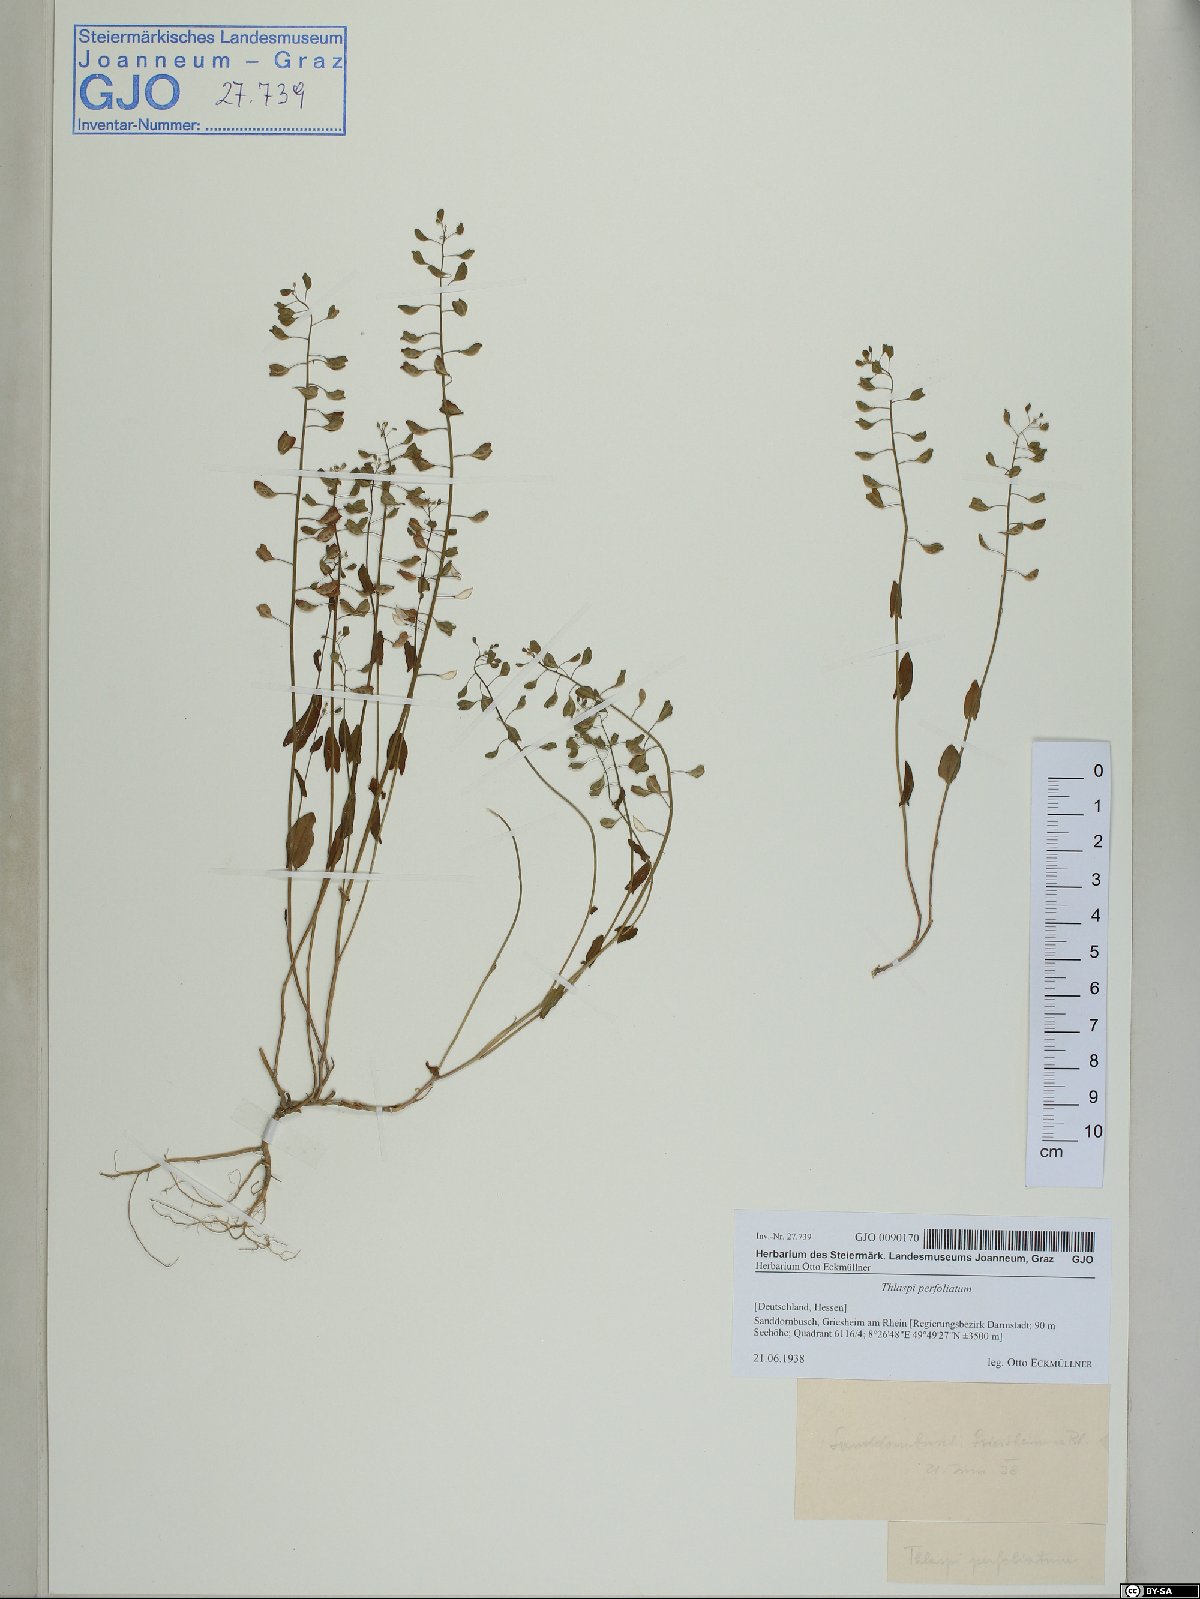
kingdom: Plantae
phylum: Tracheophyta
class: Magnoliopsida
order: Brassicales
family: Brassicaceae
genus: Noccaea
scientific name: Noccaea perfoliata
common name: Perfoliate pennycress
